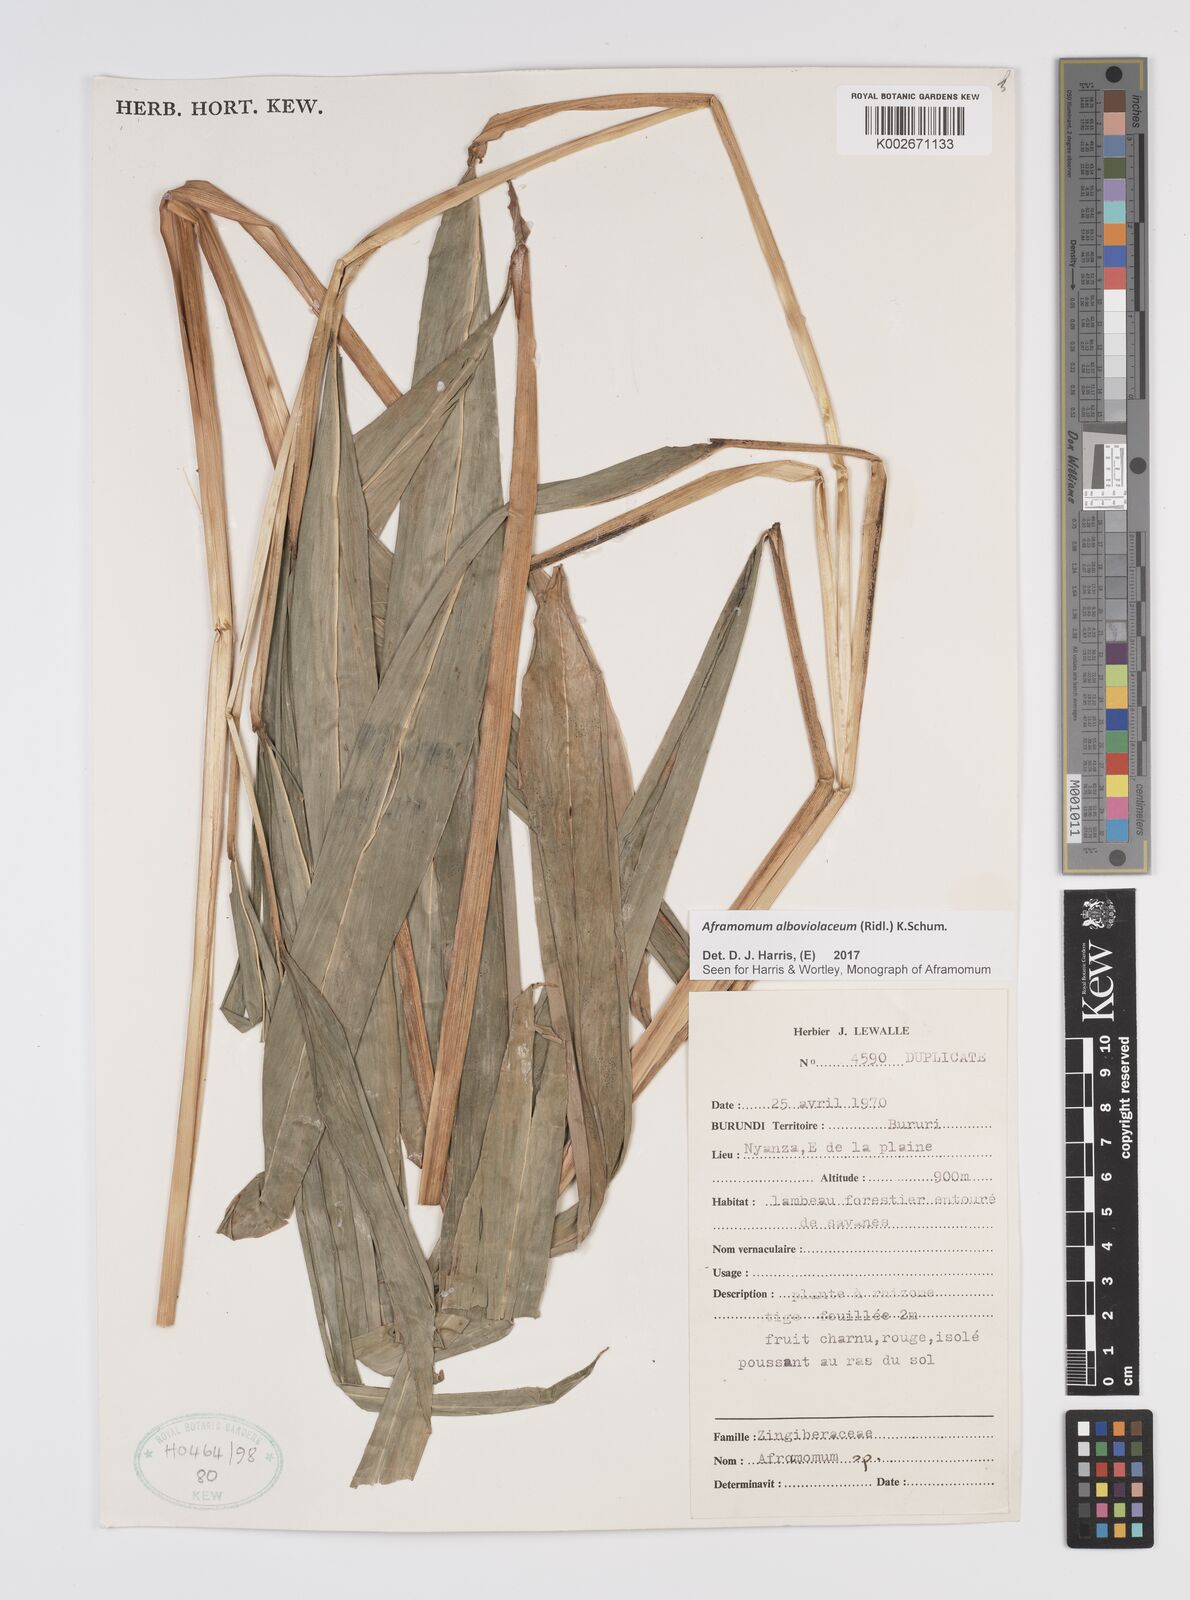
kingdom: Plantae
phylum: Tracheophyta
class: Liliopsida
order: Zingiberales
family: Zingiberaceae
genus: Aframomum
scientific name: Aframomum alboviolaceum
